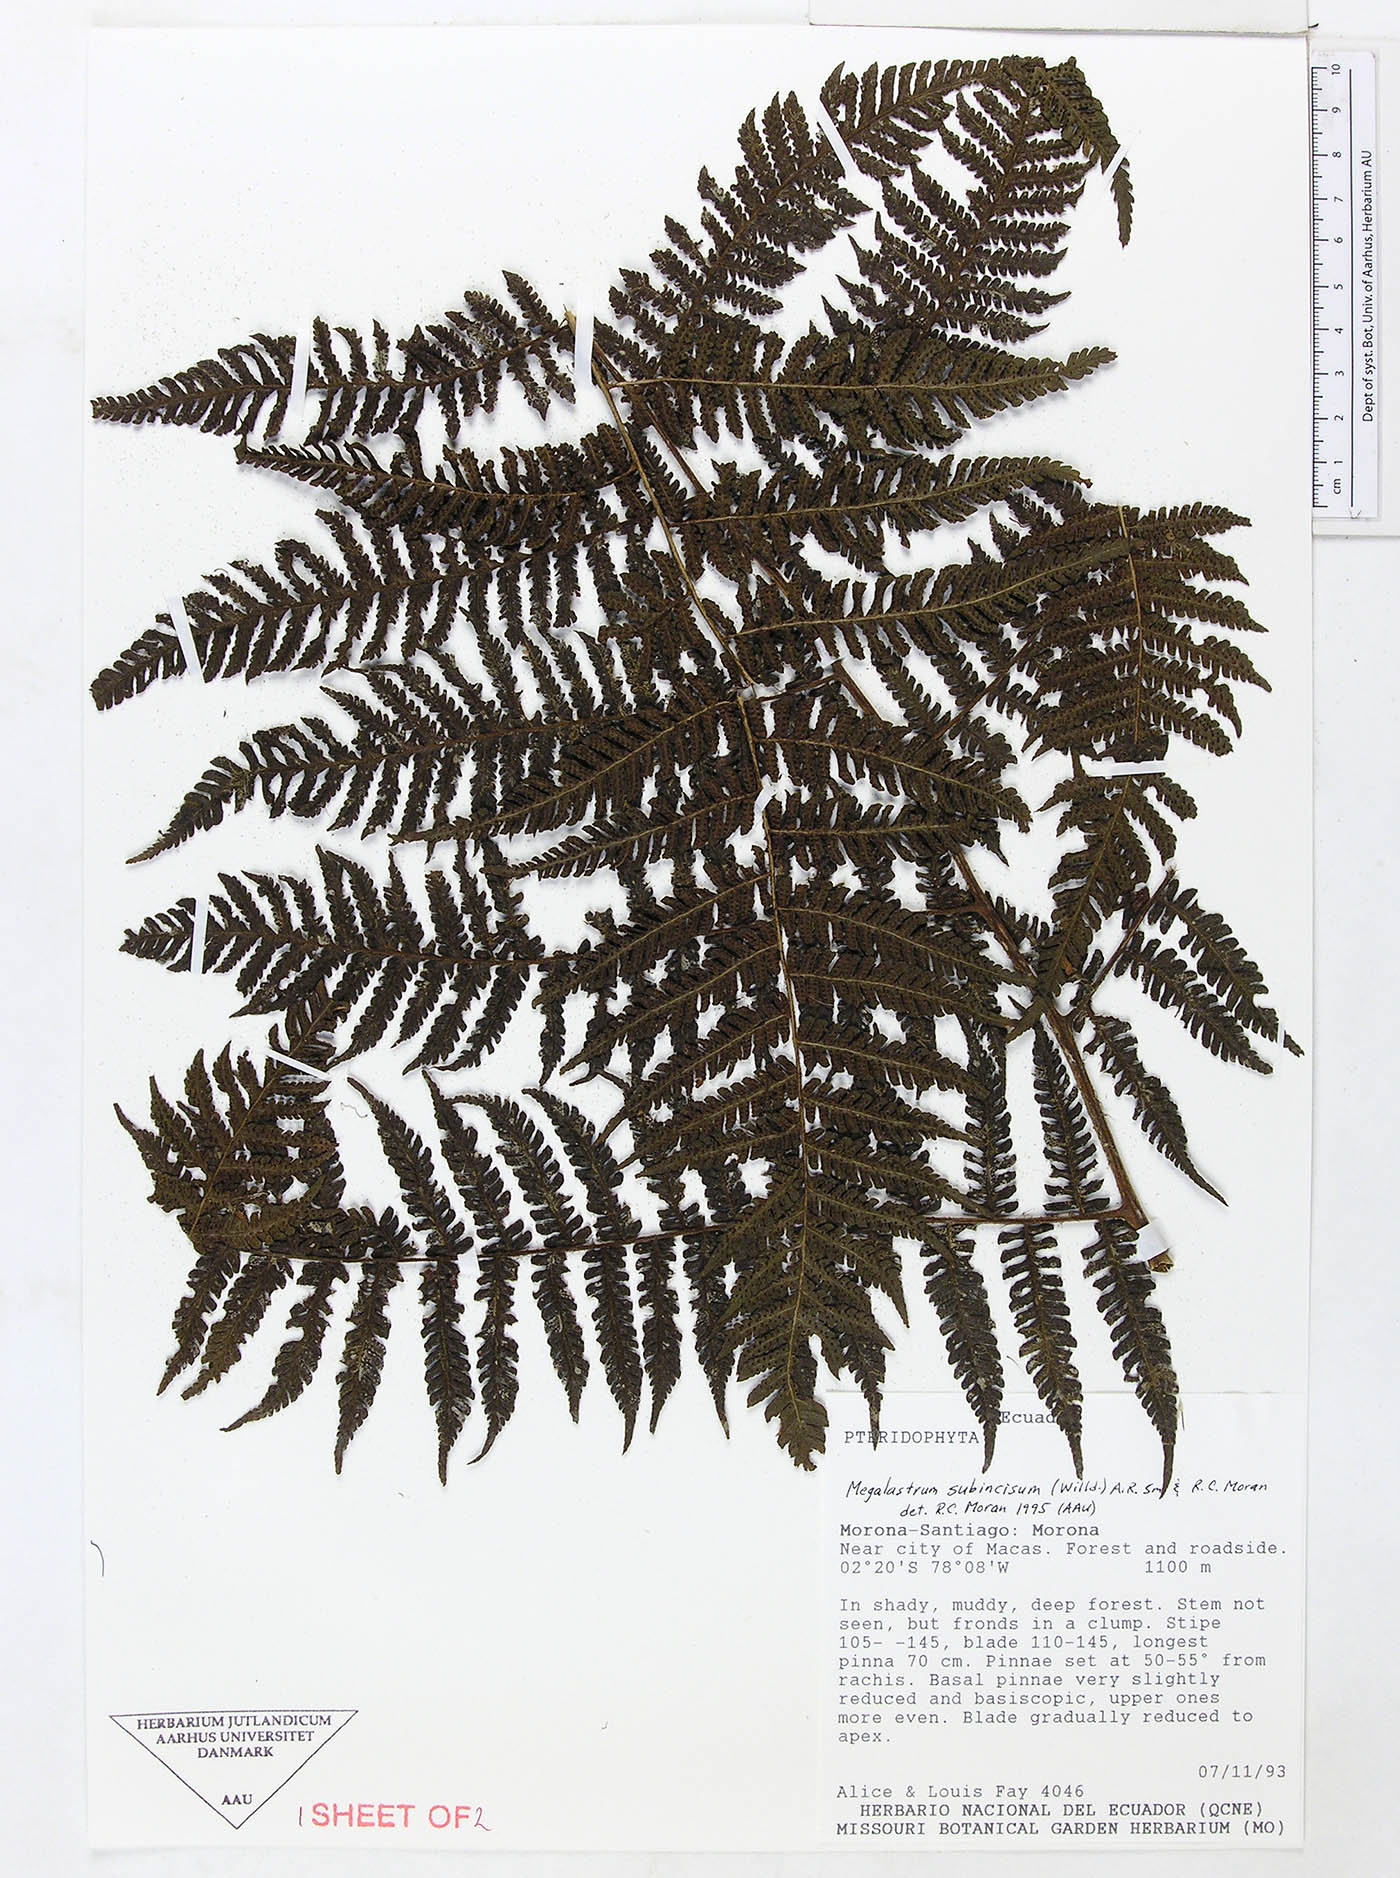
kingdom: Plantae
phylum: Tracheophyta
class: Polypodiopsida
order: Polypodiales
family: Dryopteridaceae
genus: Megalastrum
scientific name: Megalastrum praetermissum
